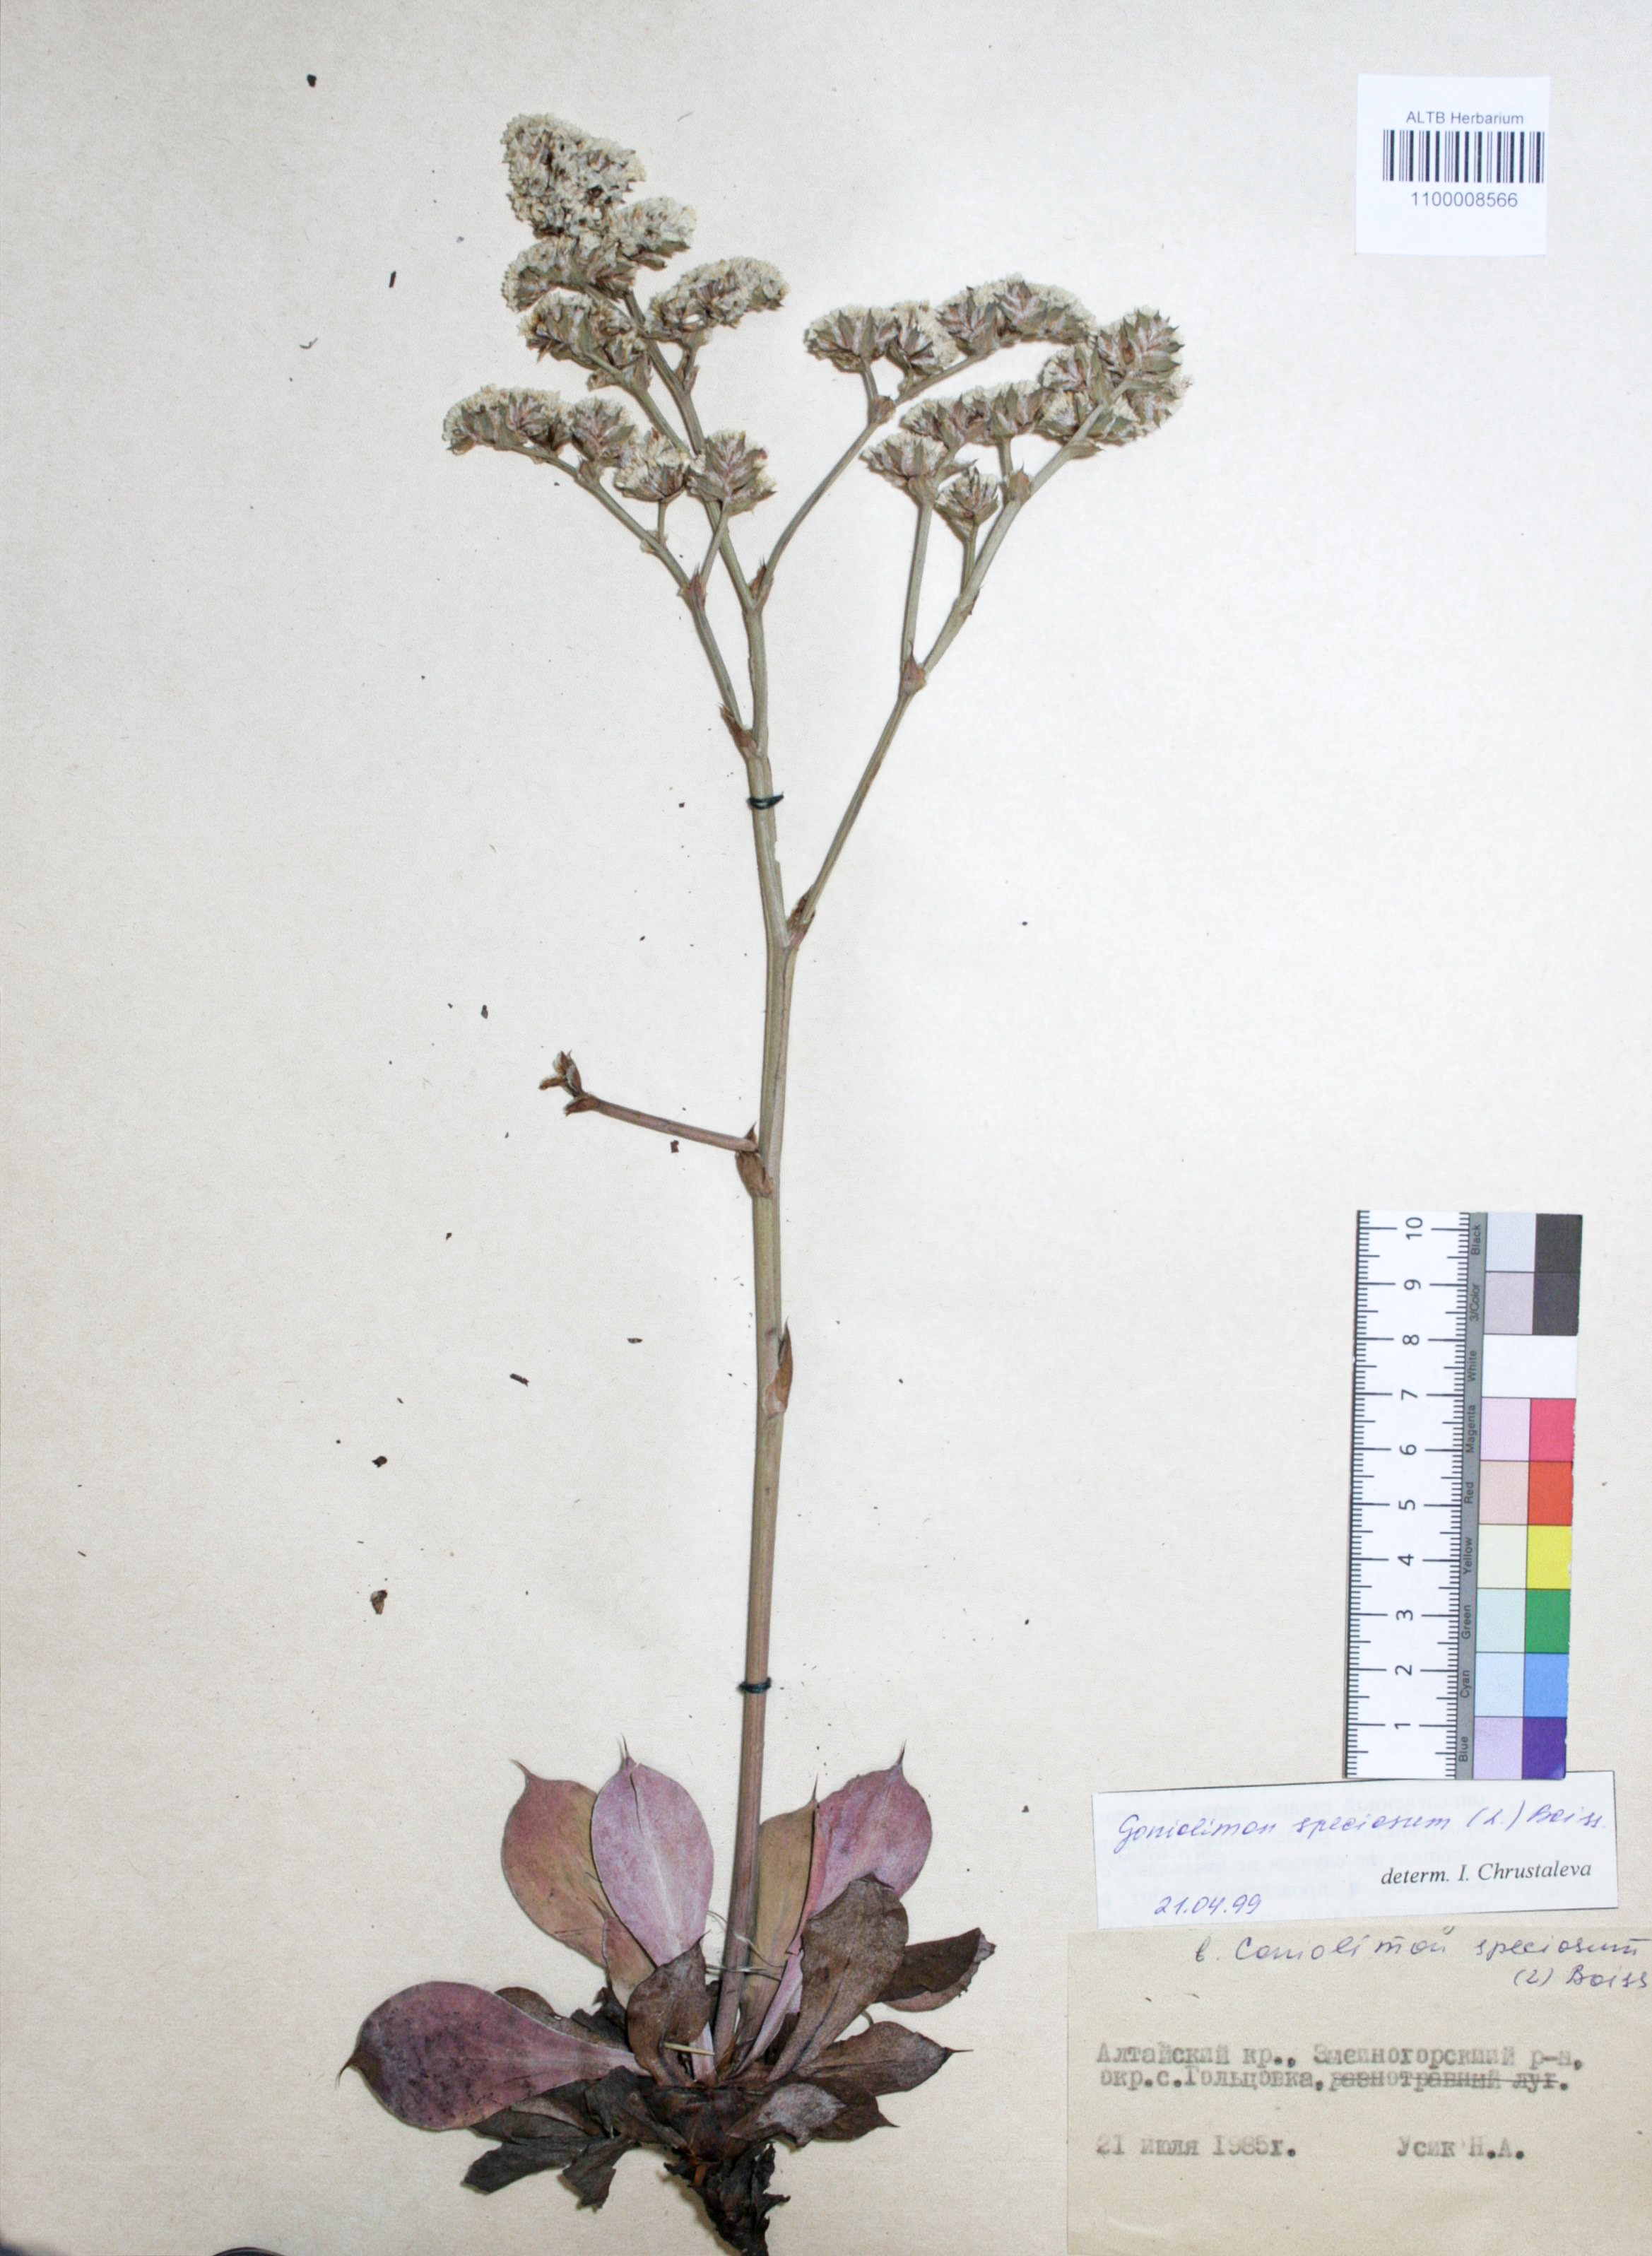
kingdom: Plantae
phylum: Tracheophyta
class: Magnoliopsida
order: Caryophyllales
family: Plumbaginaceae
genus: Goniolimon
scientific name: Goniolimon speciosum
